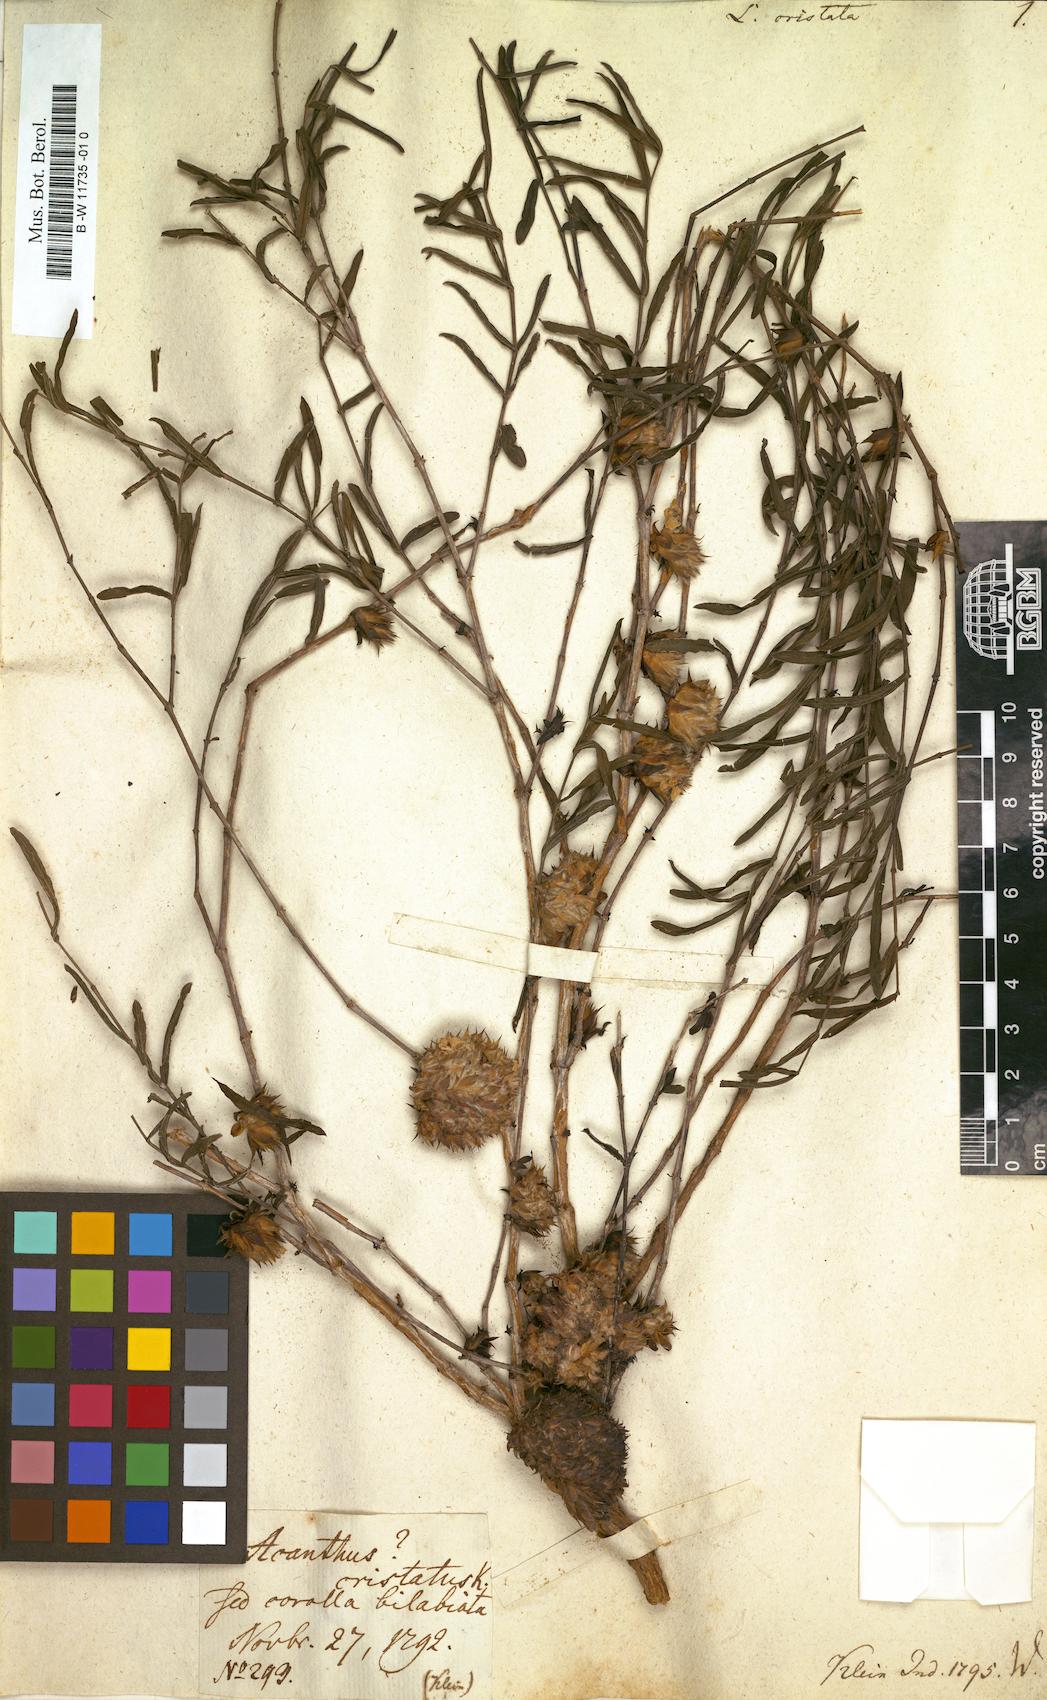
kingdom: Plantae
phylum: Tracheophyta
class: Magnoliopsida
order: Lamiales
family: Acanthaceae
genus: Lepidagathis
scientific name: Lepidagathis cristata
